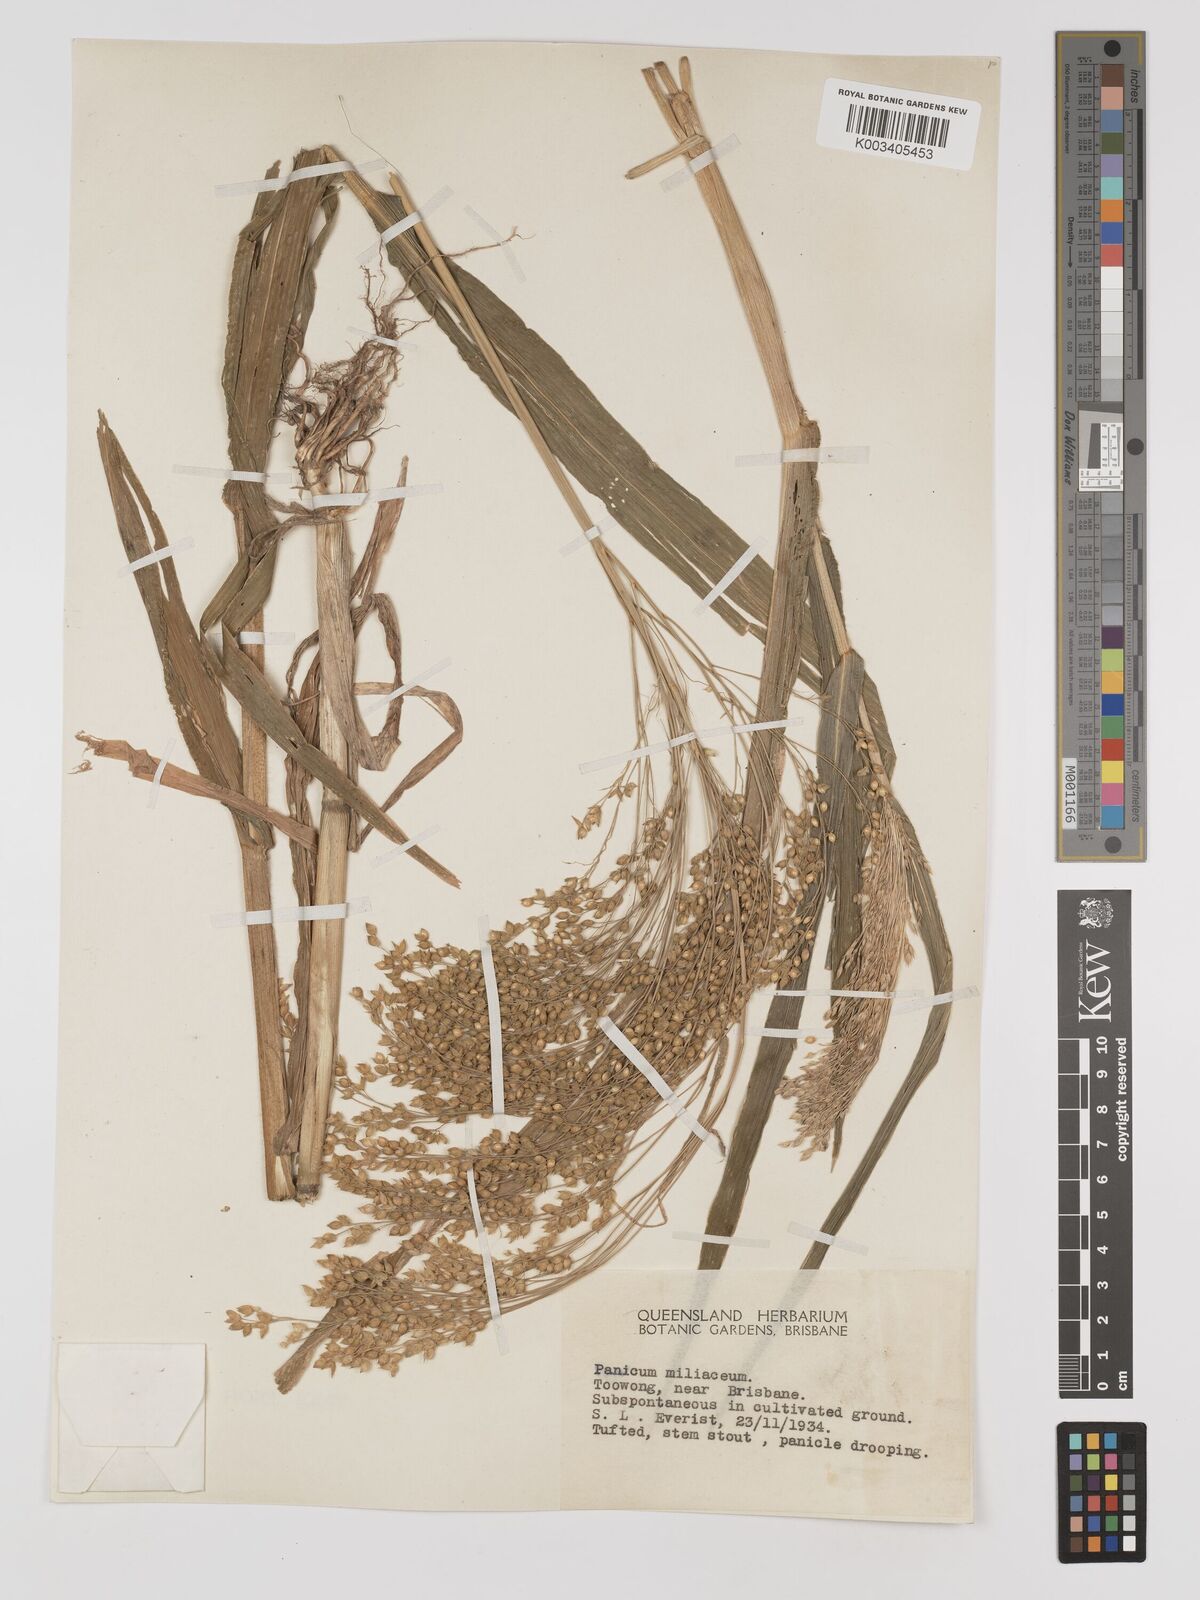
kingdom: Plantae
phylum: Tracheophyta
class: Liliopsida
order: Poales
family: Poaceae
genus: Panicum
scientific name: Panicum miliaceum
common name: Common millet
